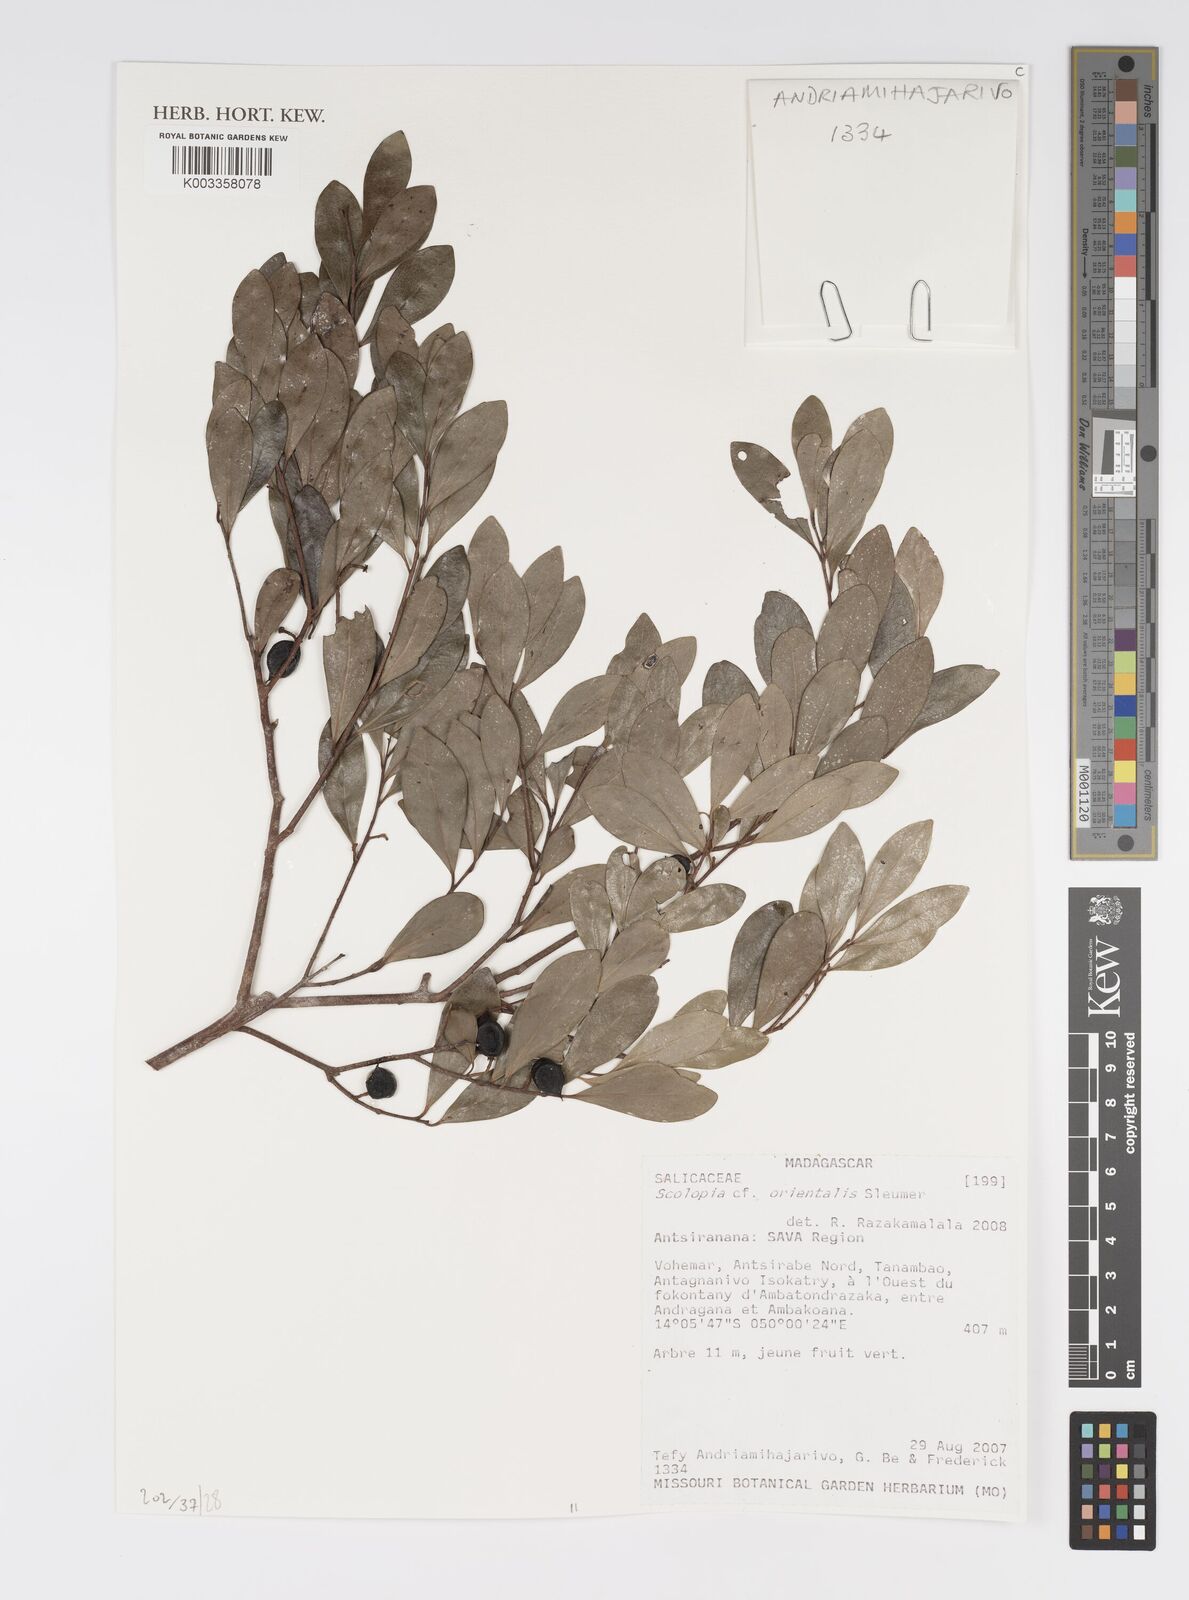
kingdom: Plantae
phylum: Tracheophyta
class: Magnoliopsida
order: Malpighiales
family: Salicaceae
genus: Scolopia
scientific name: Scolopia orientalis
